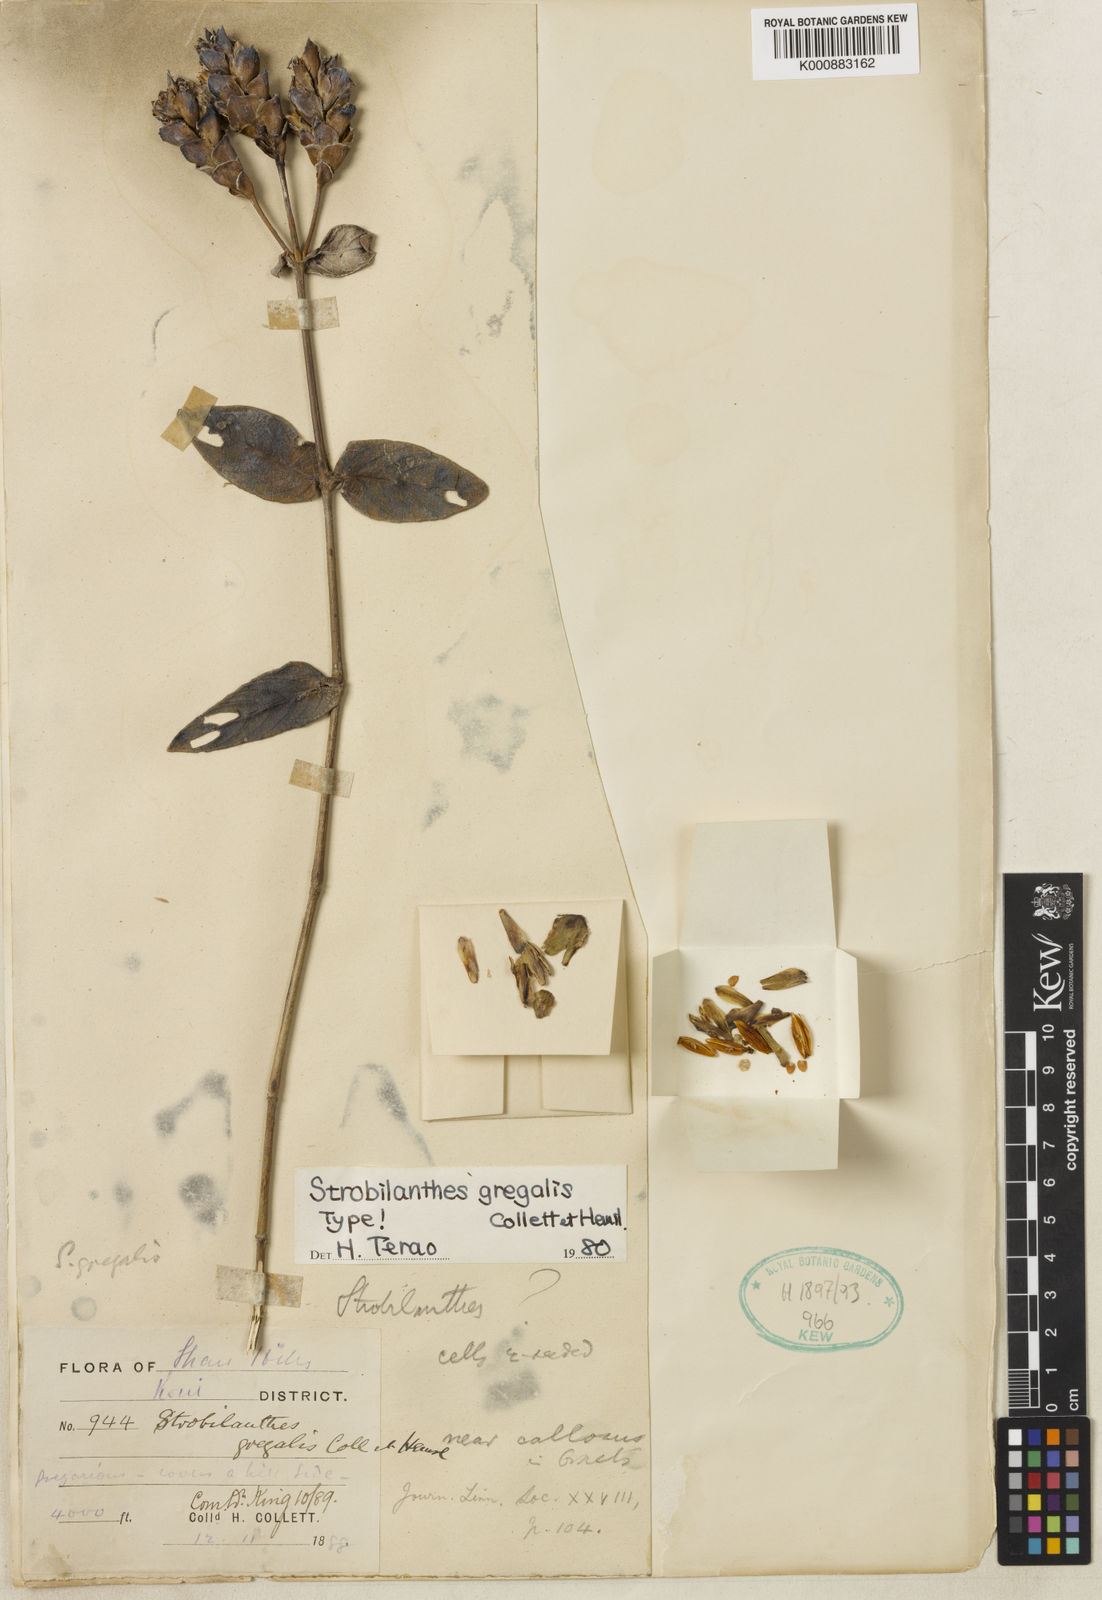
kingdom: Plantae
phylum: Tracheophyta
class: Magnoliopsida
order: Lamiales
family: Acanthaceae
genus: Strobilanthes
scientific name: Strobilanthes gregalis
